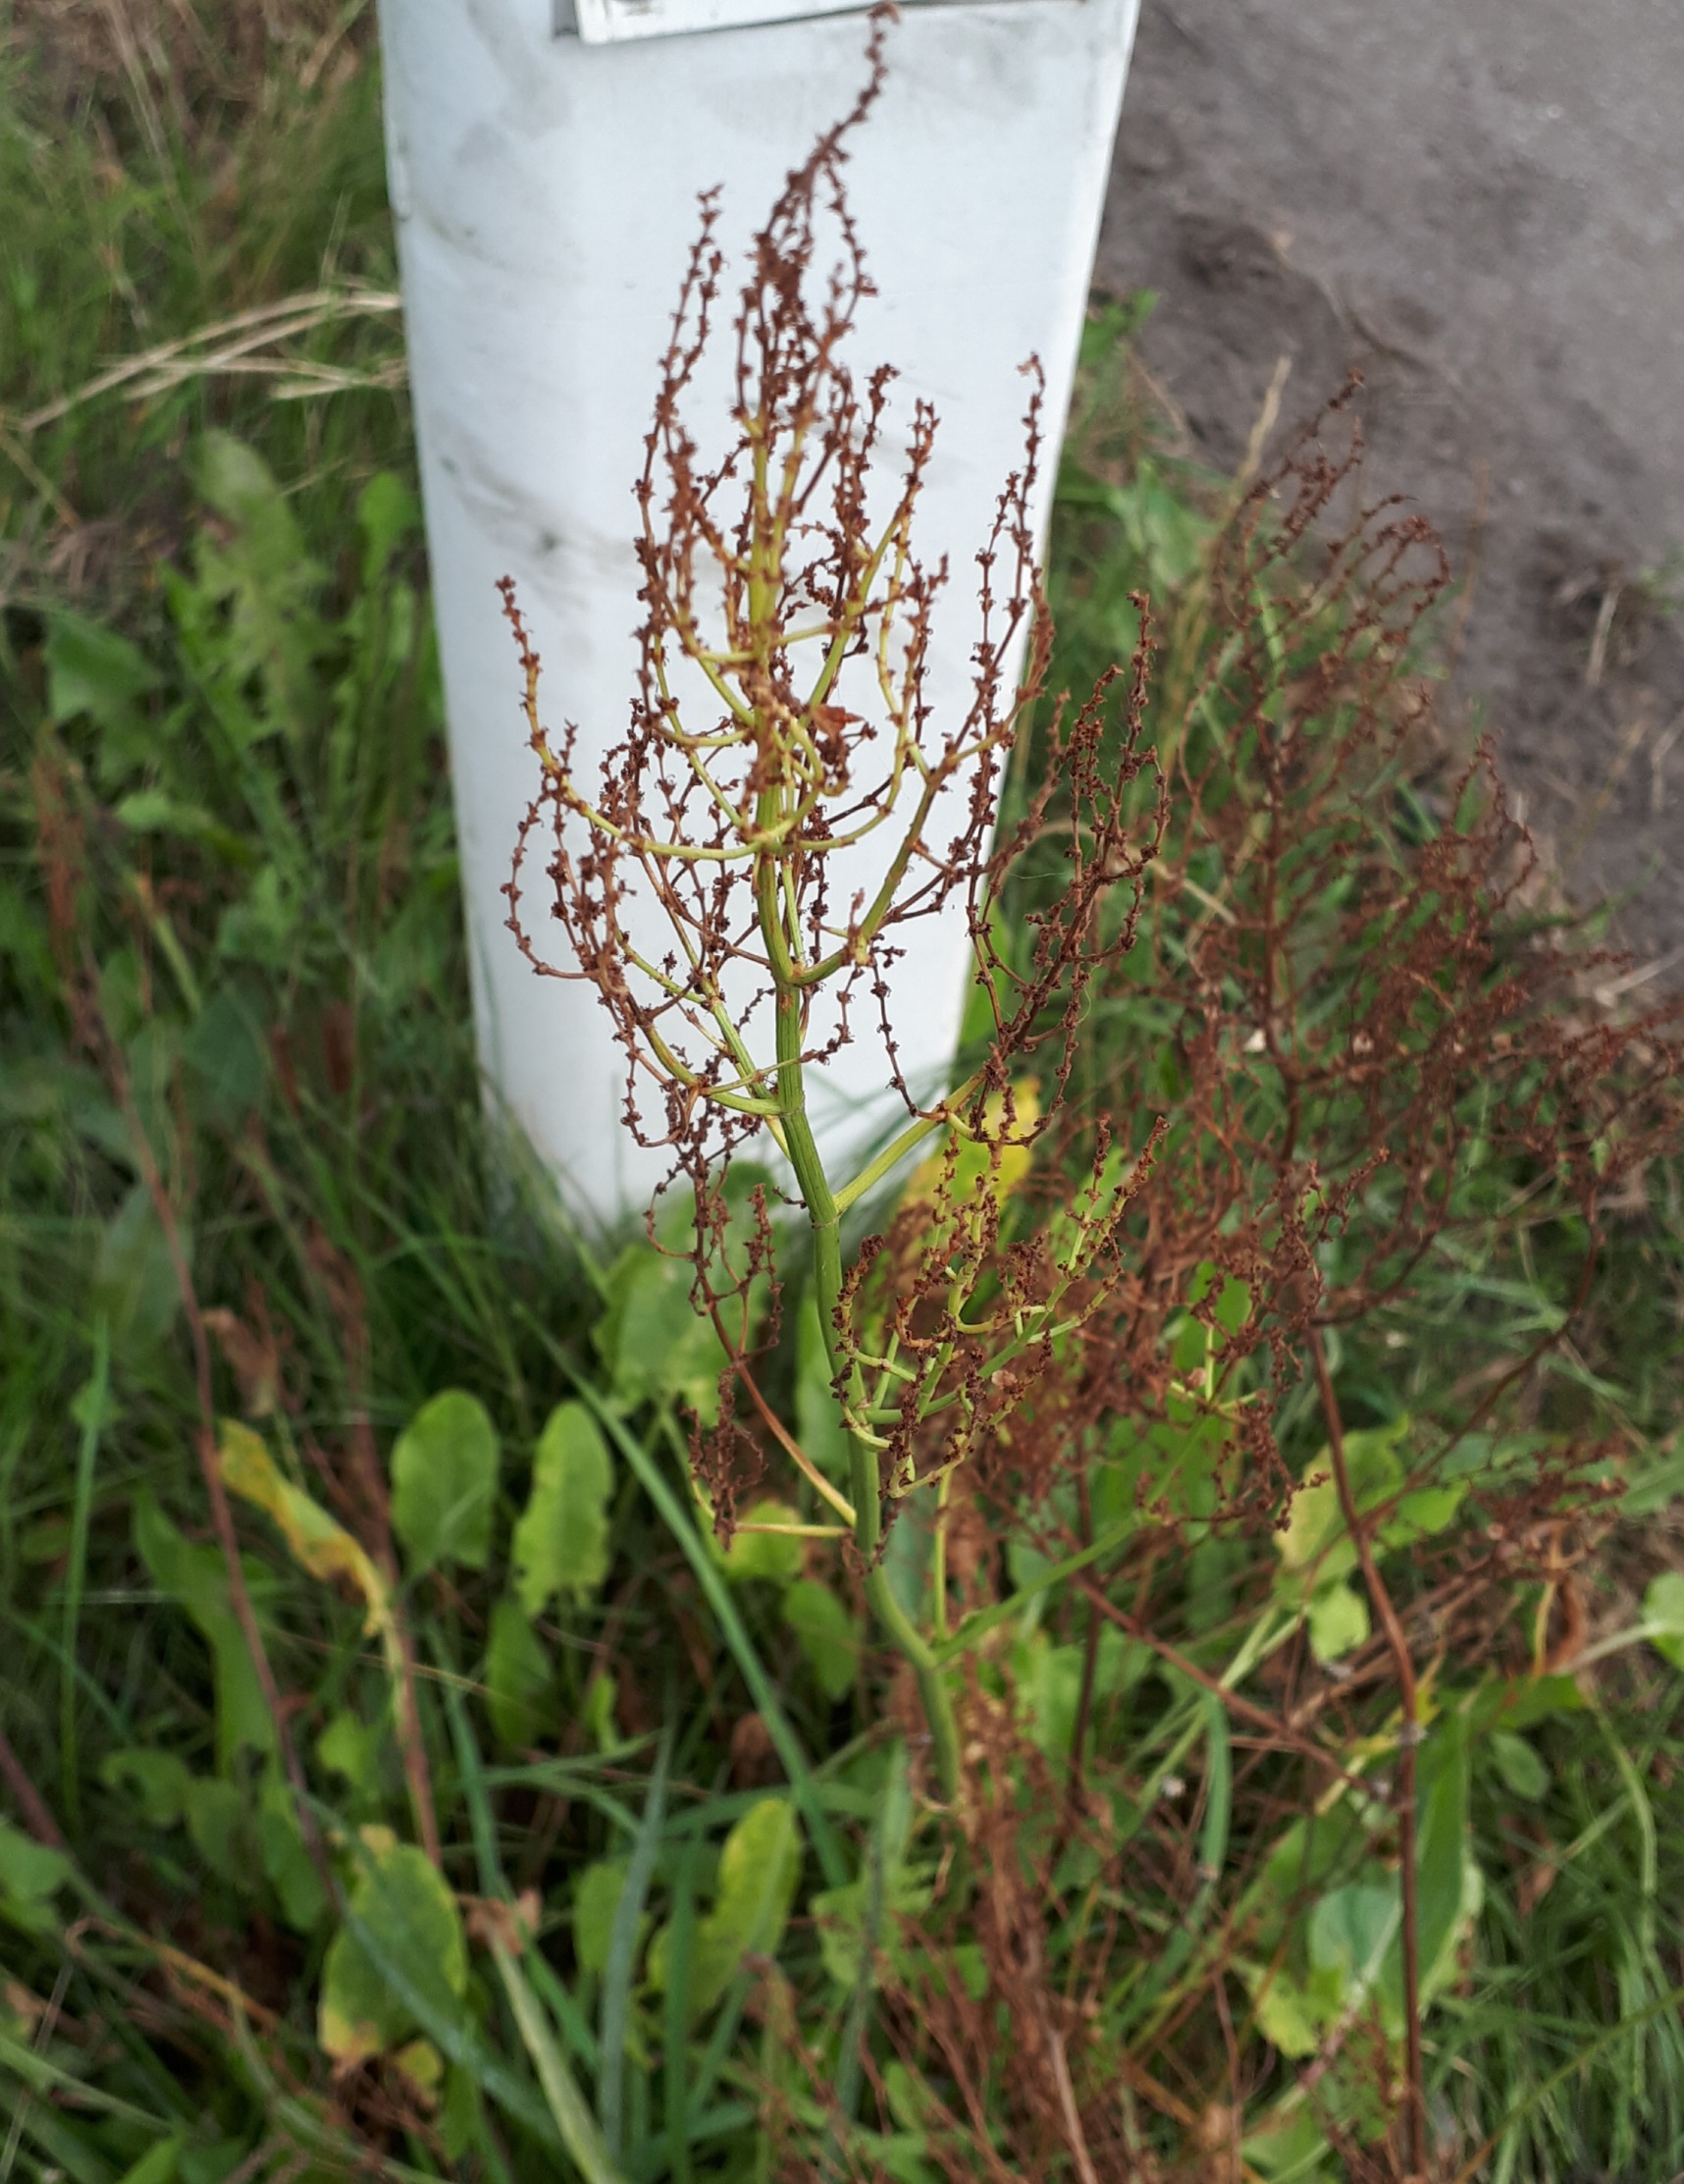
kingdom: Plantae
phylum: Tracheophyta
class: Magnoliopsida
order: Caryophyllales
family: Polygonaceae
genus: Rumex
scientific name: Rumex thyrsiflorus
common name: Dusk-syre
